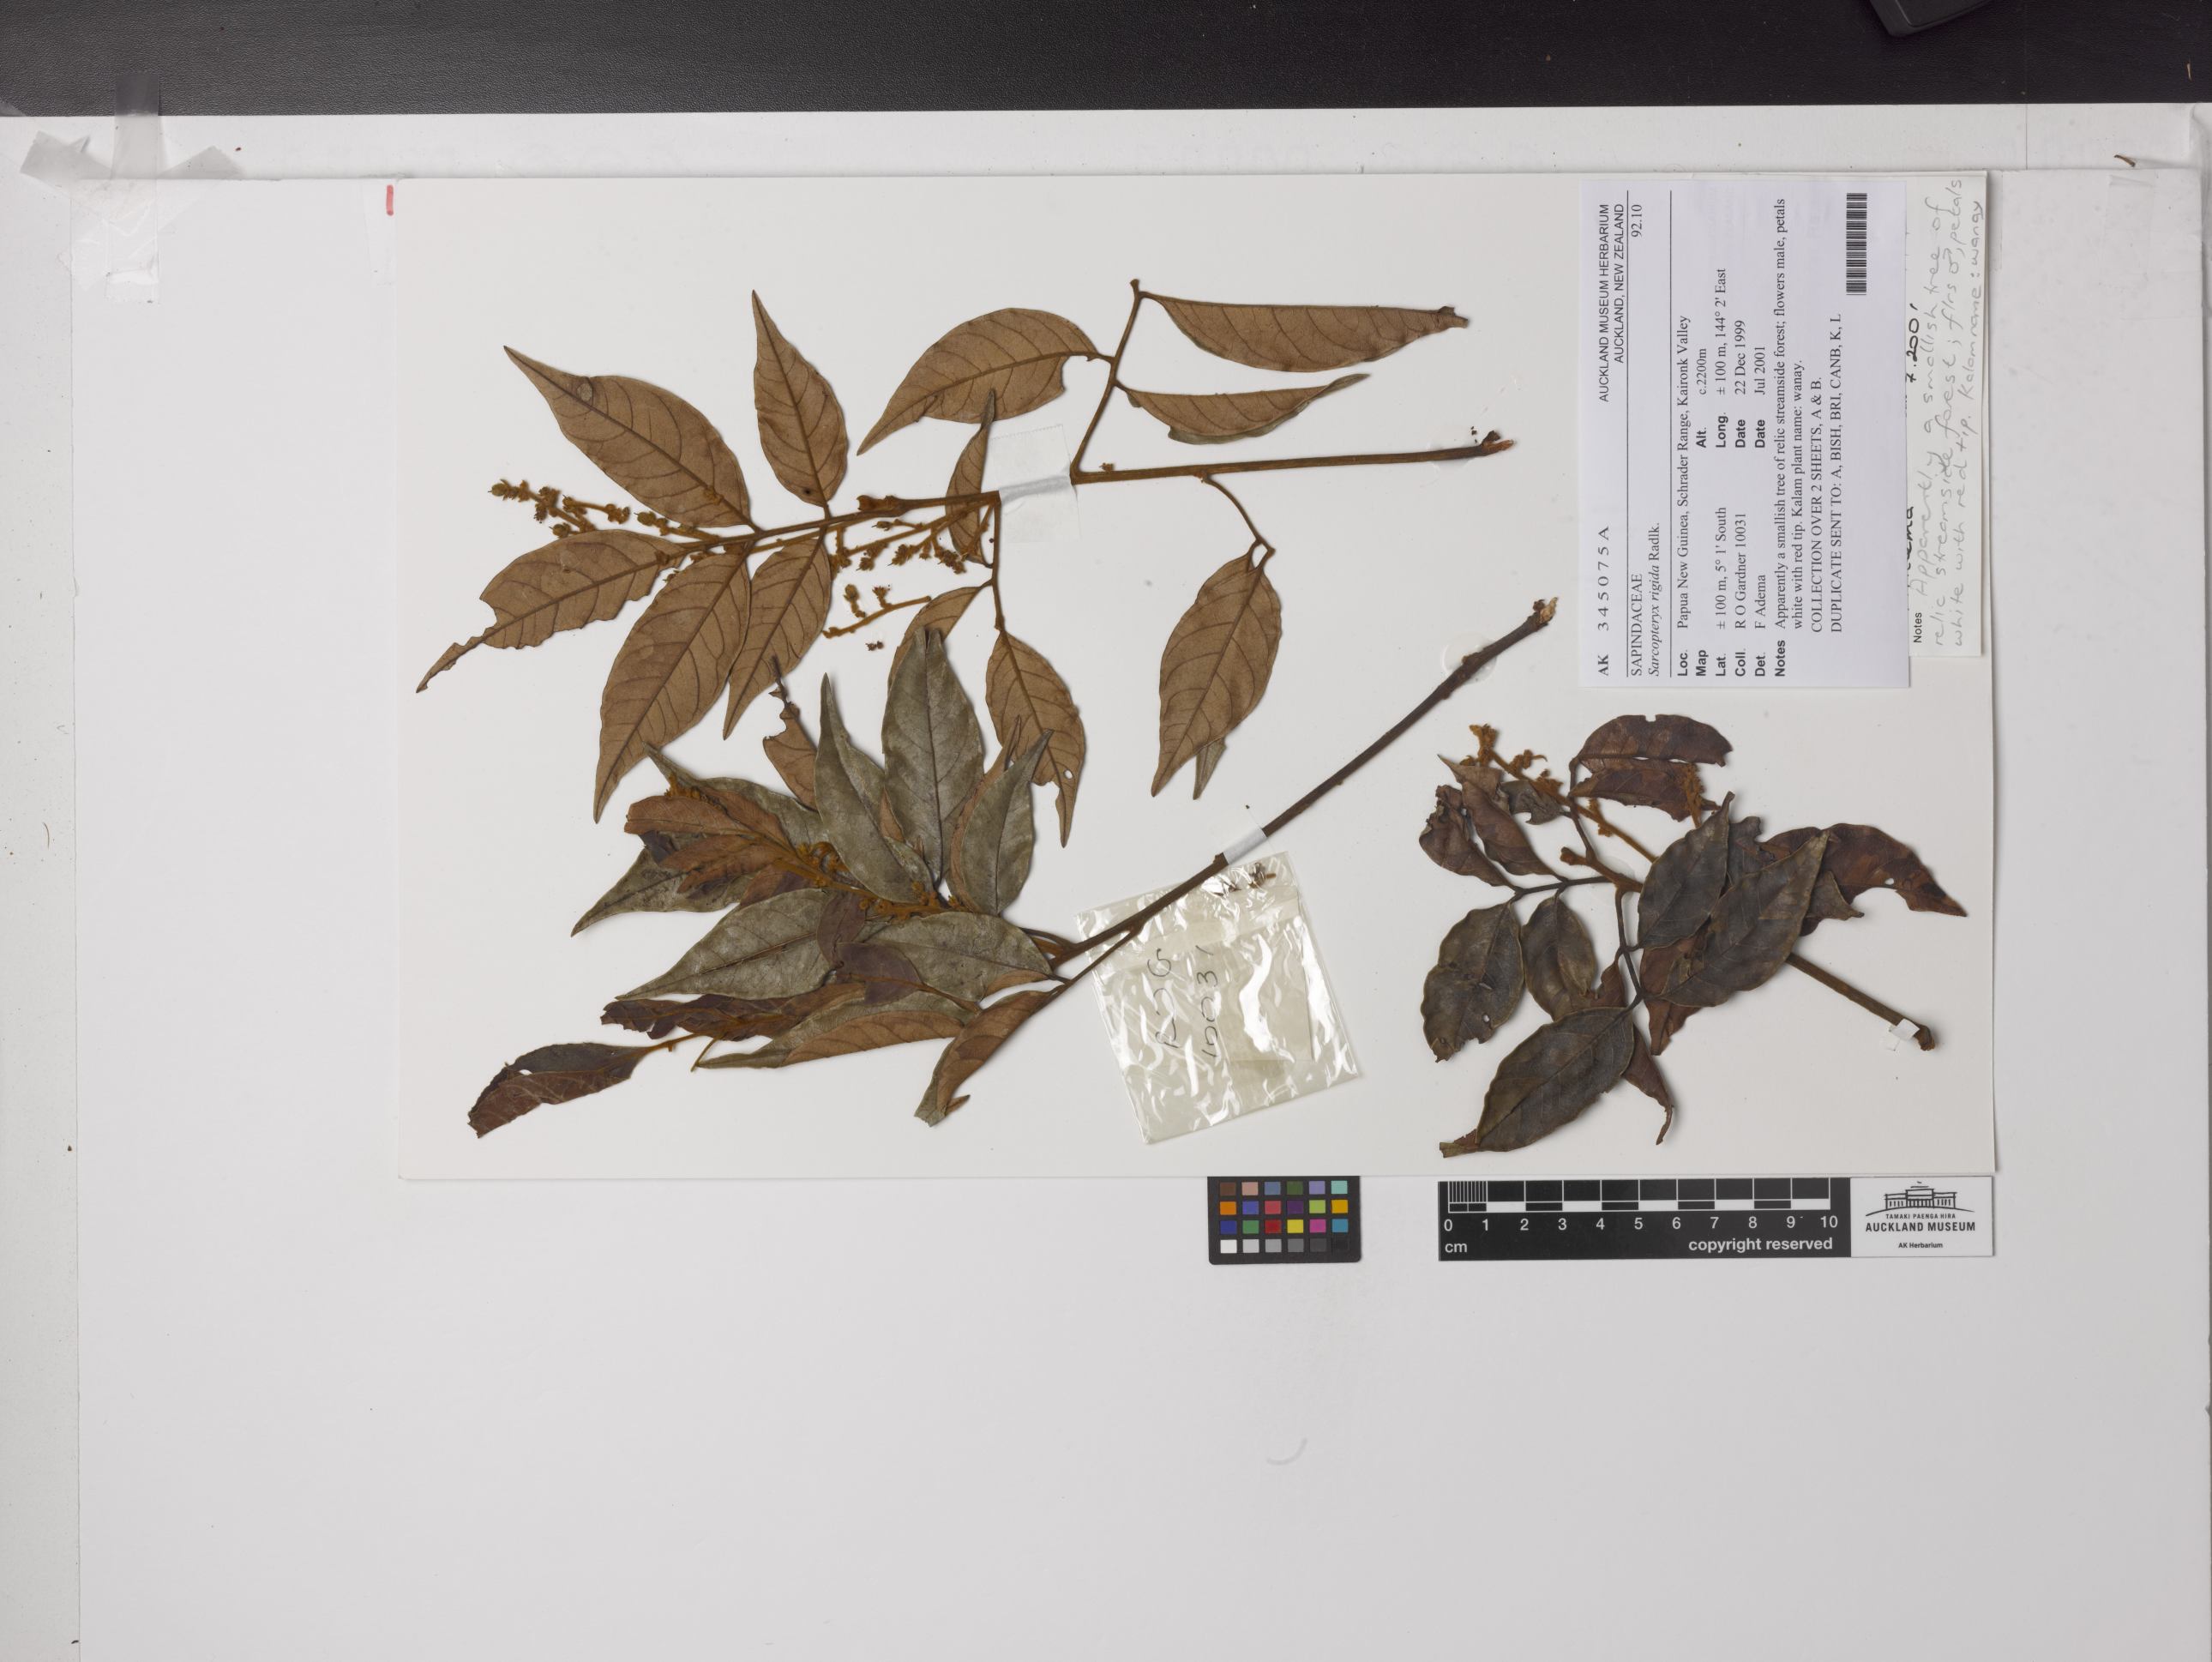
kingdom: Plantae
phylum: Tracheophyta
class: Magnoliopsida
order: Sapindales
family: Sapindaceae
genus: Sarcopteryx
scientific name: Sarcopteryx rigida
